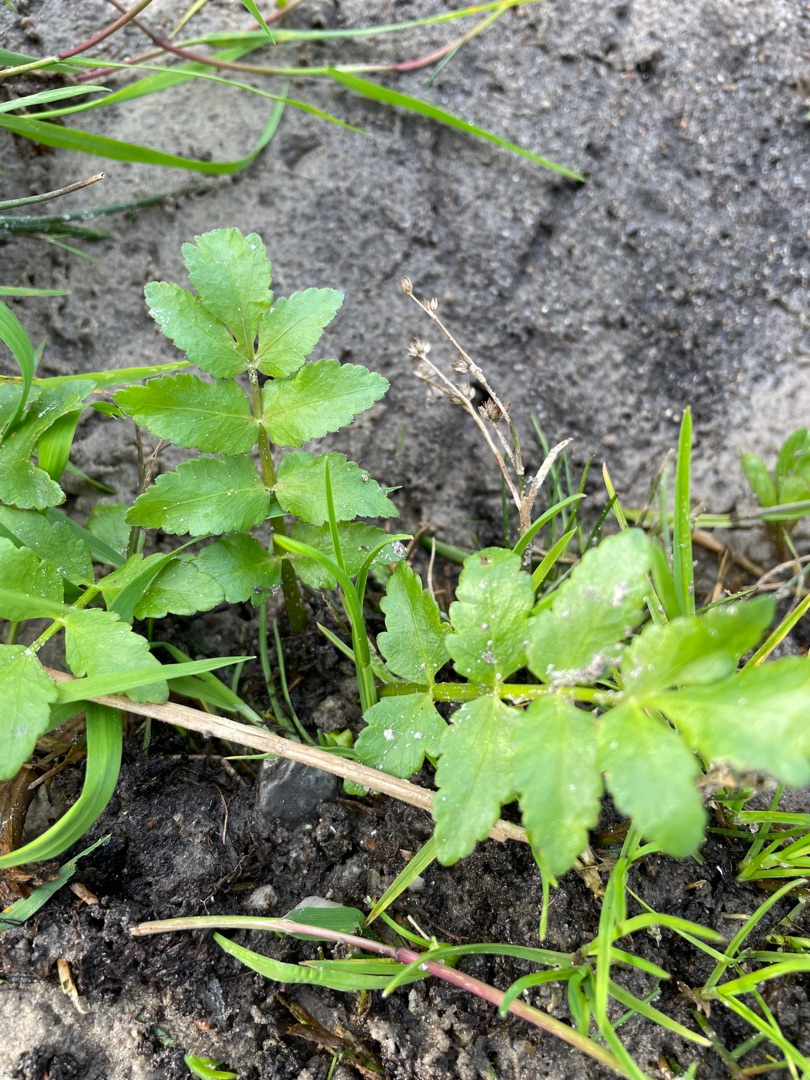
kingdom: Plantae
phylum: Tracheophyta
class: Magnoliopsida
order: Apiales
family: Apiaceae
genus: Berula
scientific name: Berula erecta
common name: Sideskærm
